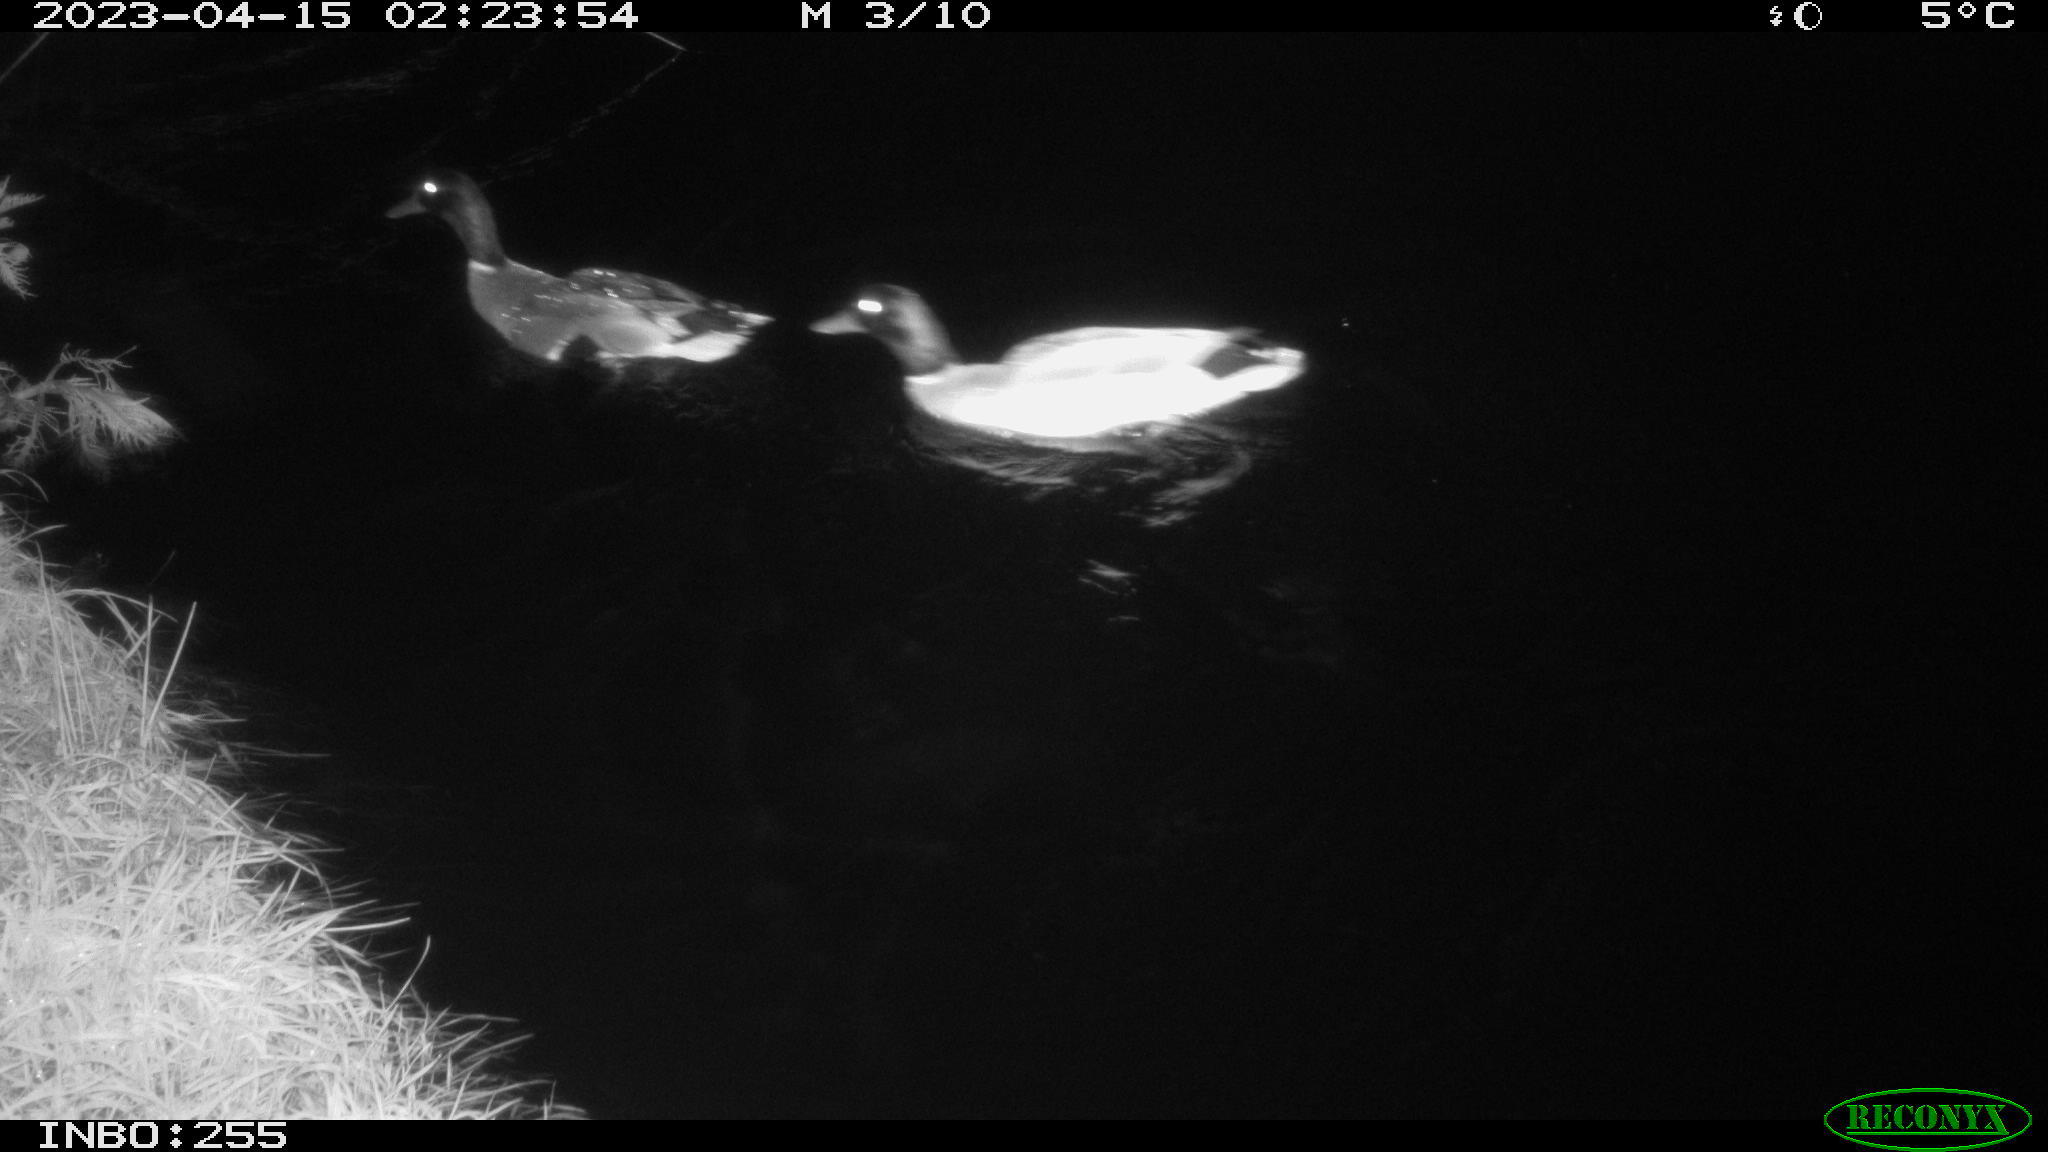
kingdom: Animalia
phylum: Chordata
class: Aves
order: Anseriformes
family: Anatidae
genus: Anas
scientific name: Anas
